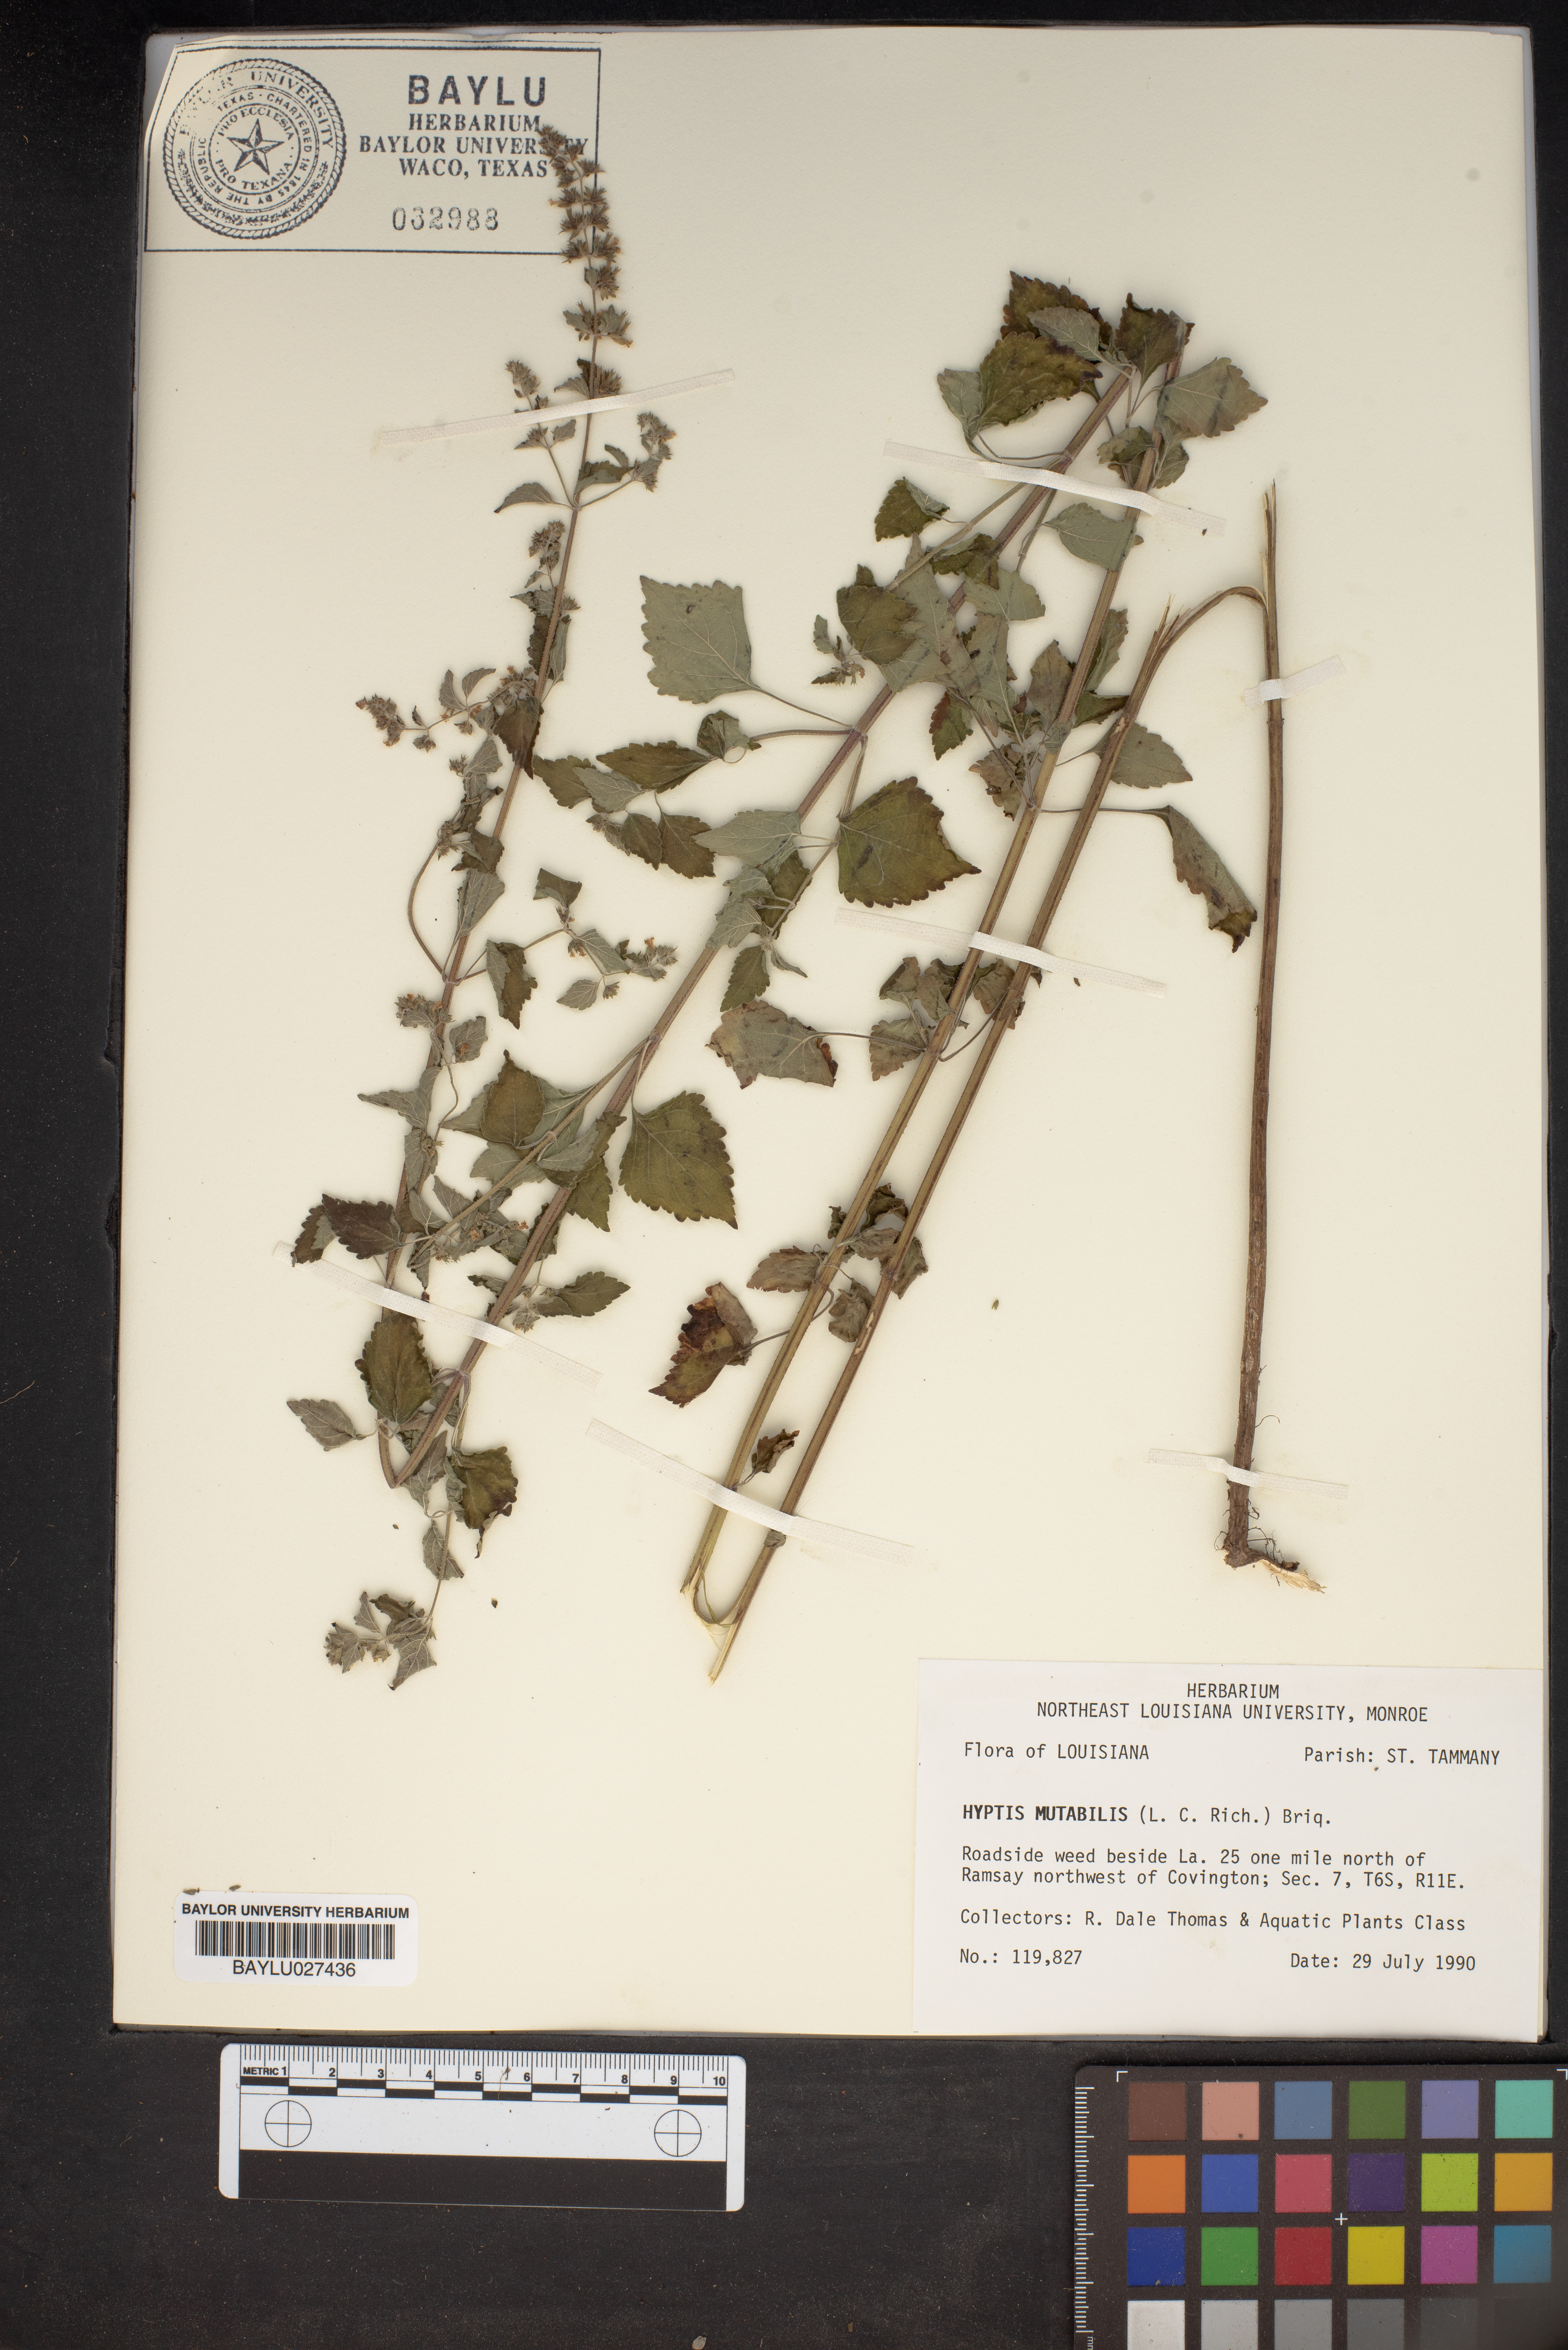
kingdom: Plantae
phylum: Tracheophyta
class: Magnoliopsida
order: Lamiales
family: Lamiaceae
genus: Cantinoa
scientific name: Cantinoa mutabilis
